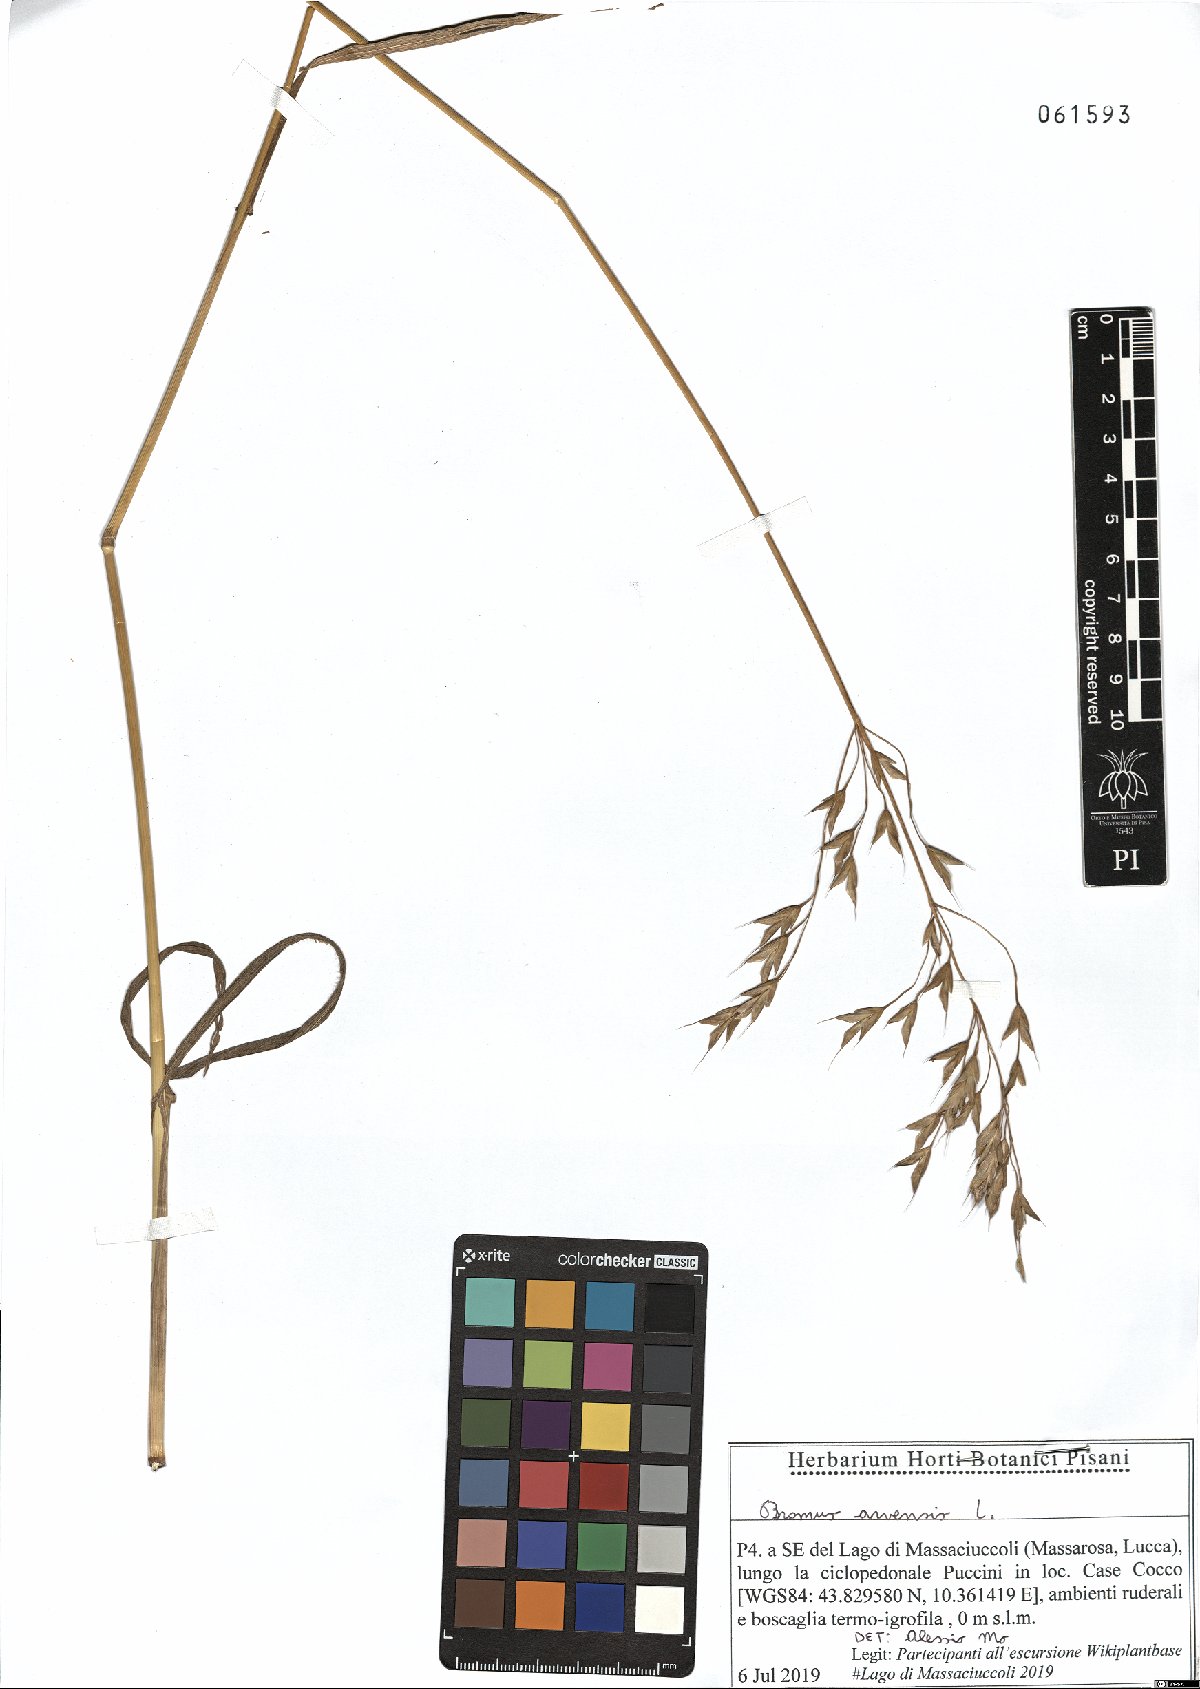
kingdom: Plantae
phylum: Tracheophyta
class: Liliopsida
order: Poales
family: Poaceae
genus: Bromus
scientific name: Bromus arvensis
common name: Field brome
